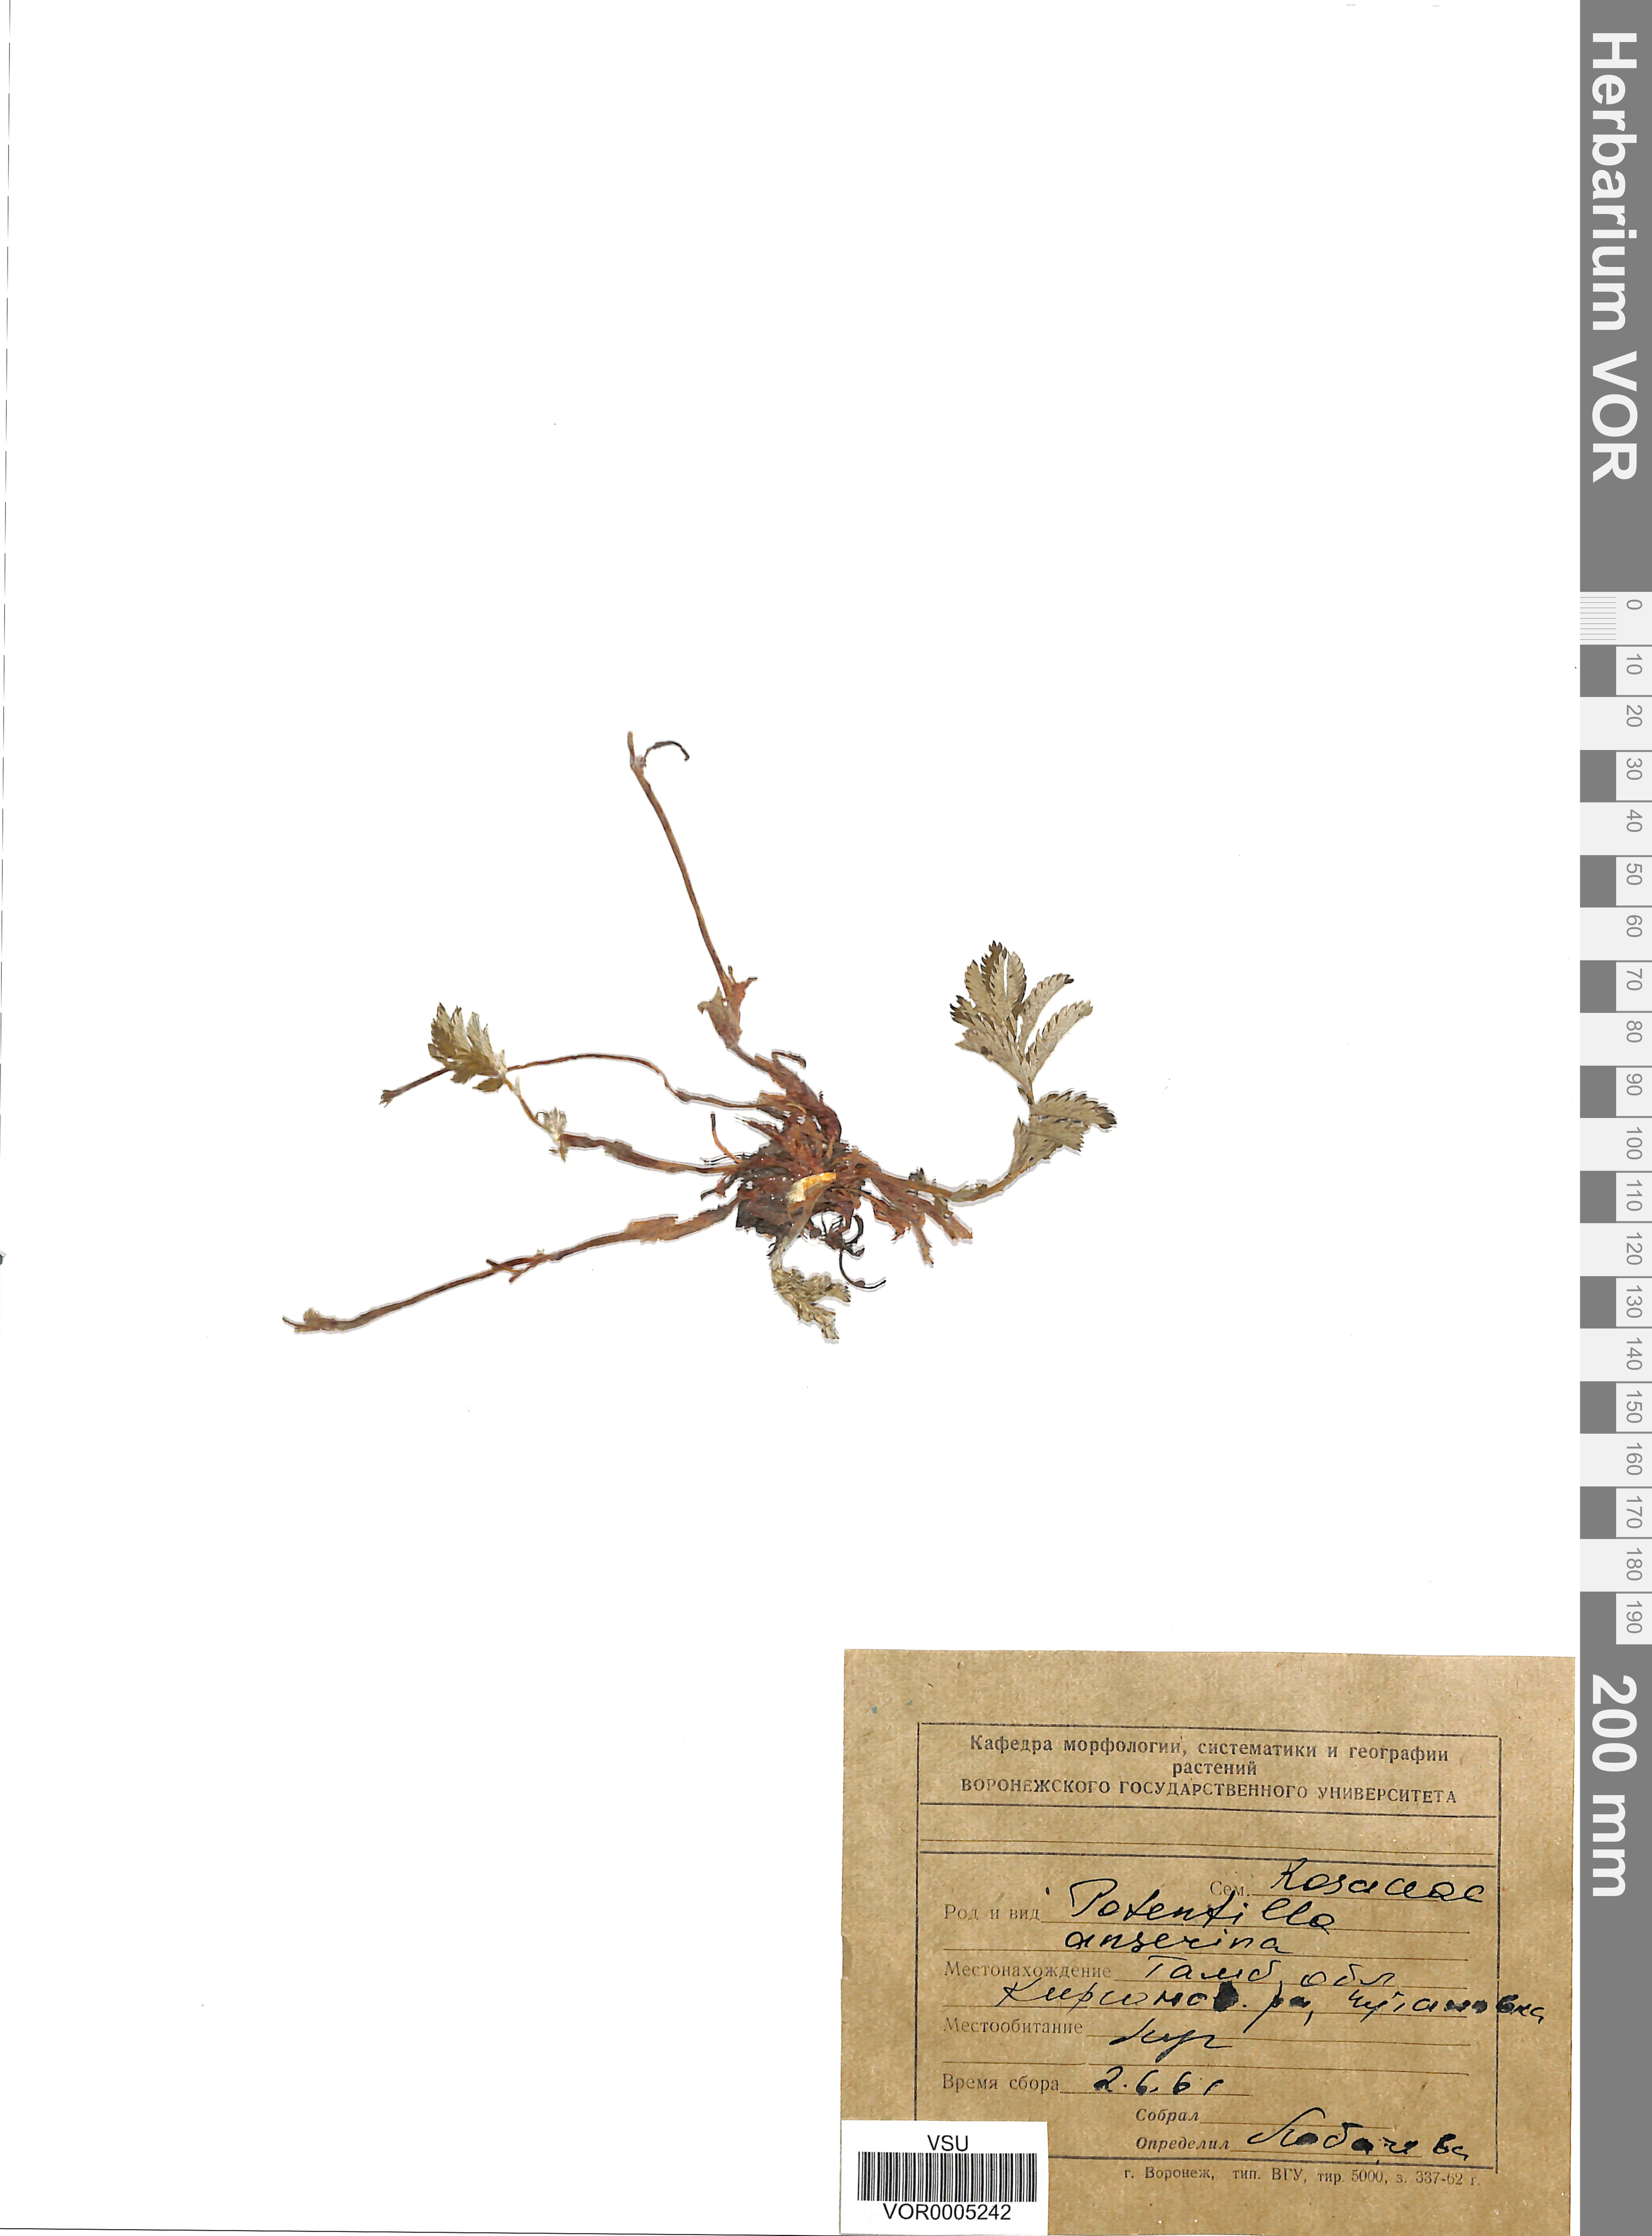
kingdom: Plantae
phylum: Tracheophyta
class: Magnoliopsida
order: Rosales
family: Rosaceae
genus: Argentina
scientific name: Argentina anserina
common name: Common silverweed
